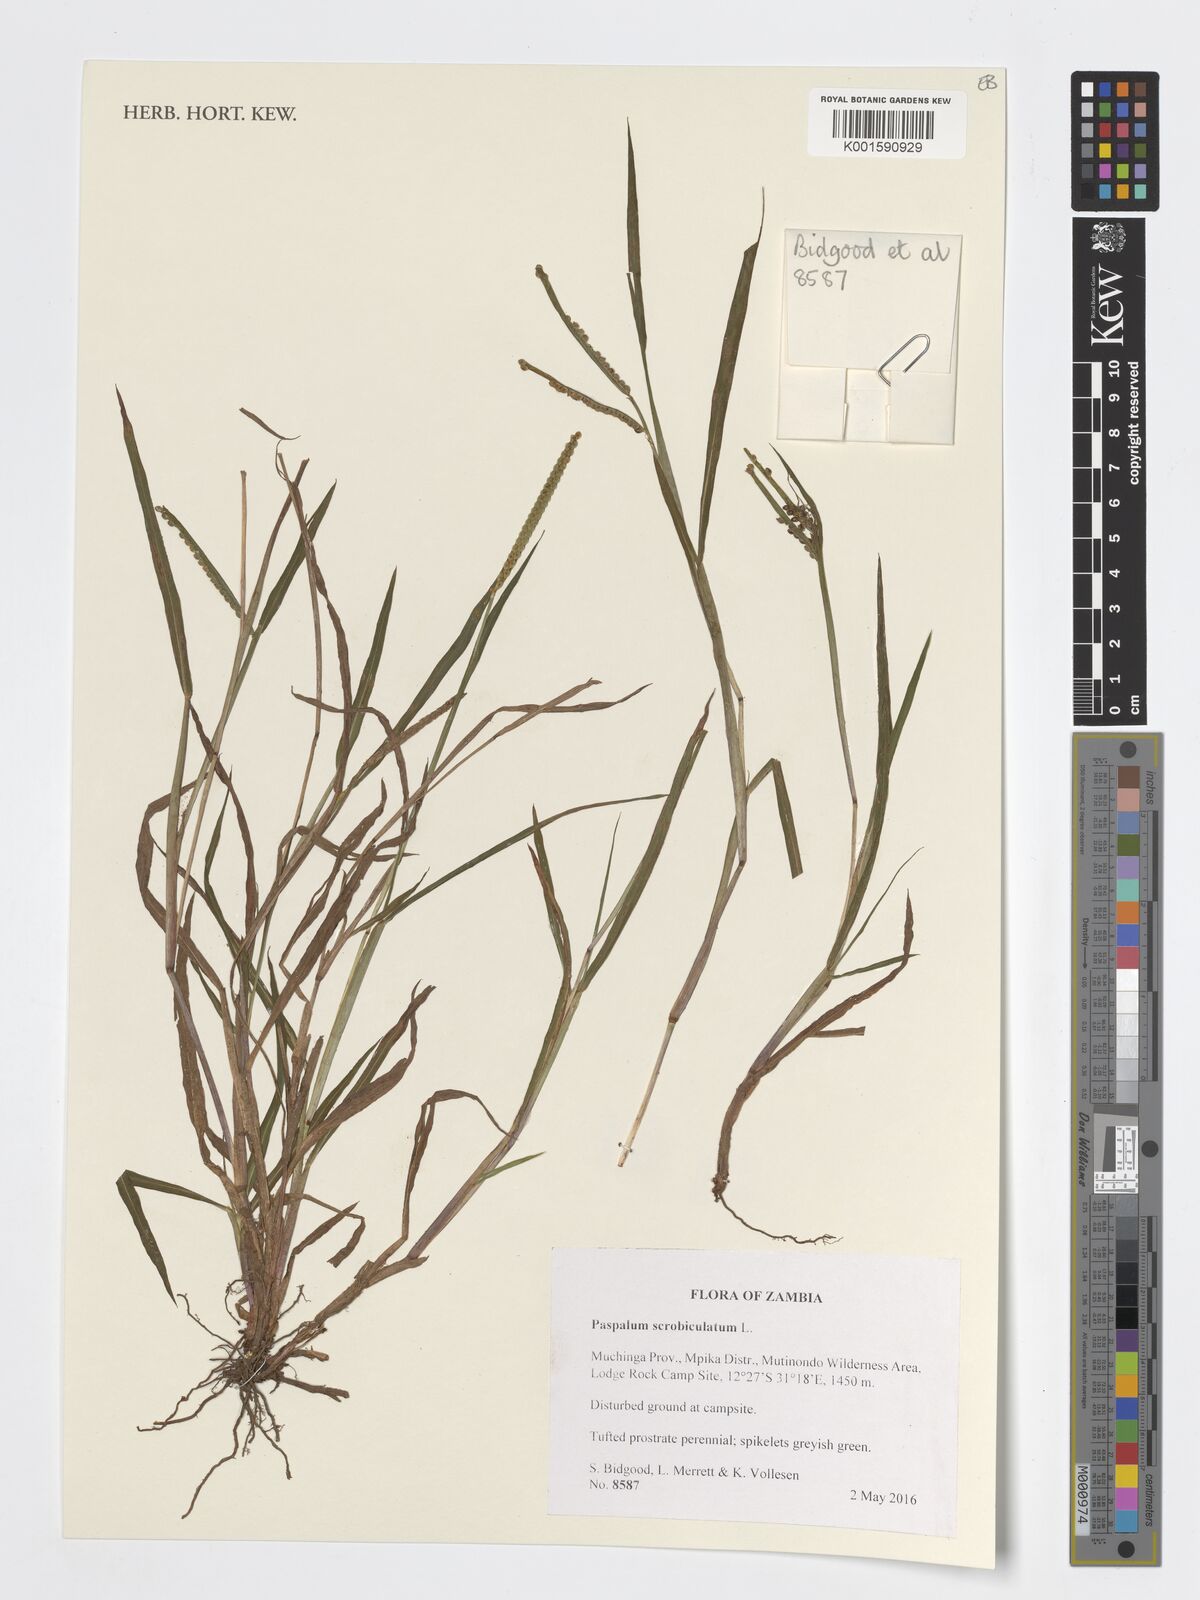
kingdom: Plantae
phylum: Tracheophyta
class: Liliopsida
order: Poales
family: Poaceae
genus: Paspalum
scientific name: Paspalum scrobiculatum
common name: Kodo millet
